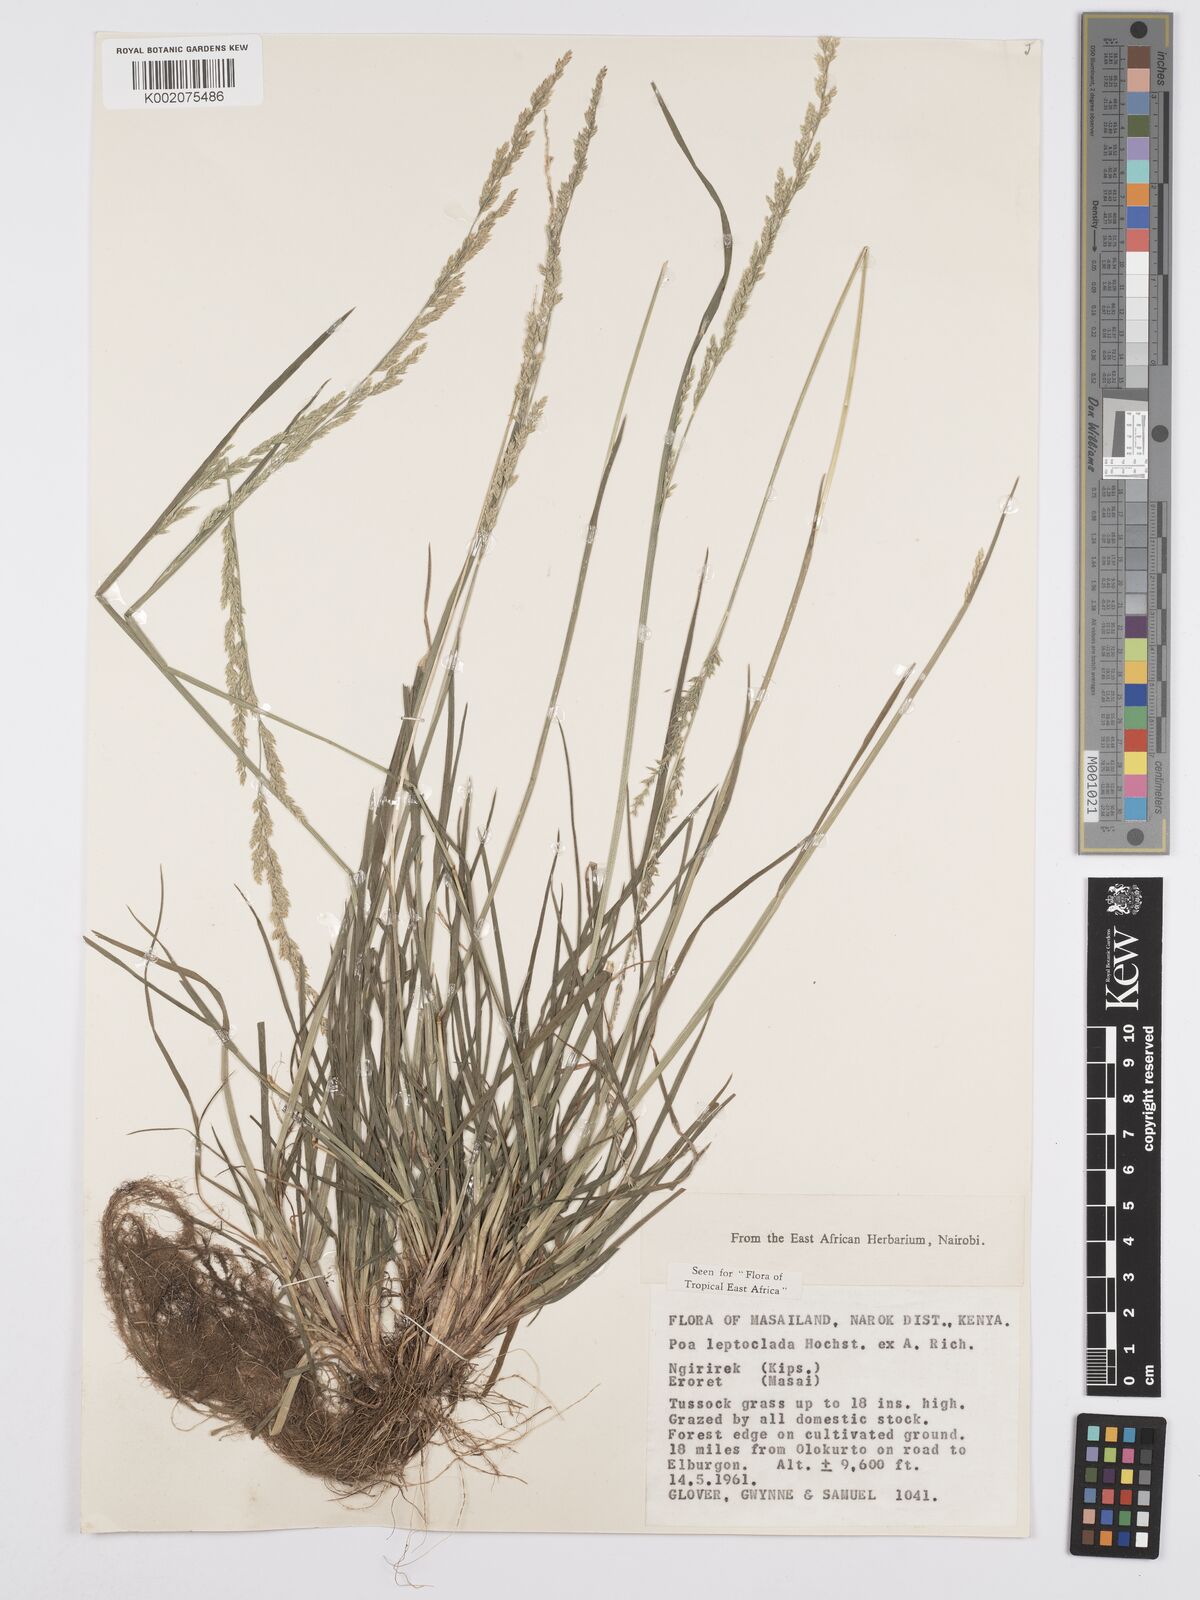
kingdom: Plantae
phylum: Tracheophyta
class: Liliopsida
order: Poales
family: Poaceae
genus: Poa
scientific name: Poa leptoclada
